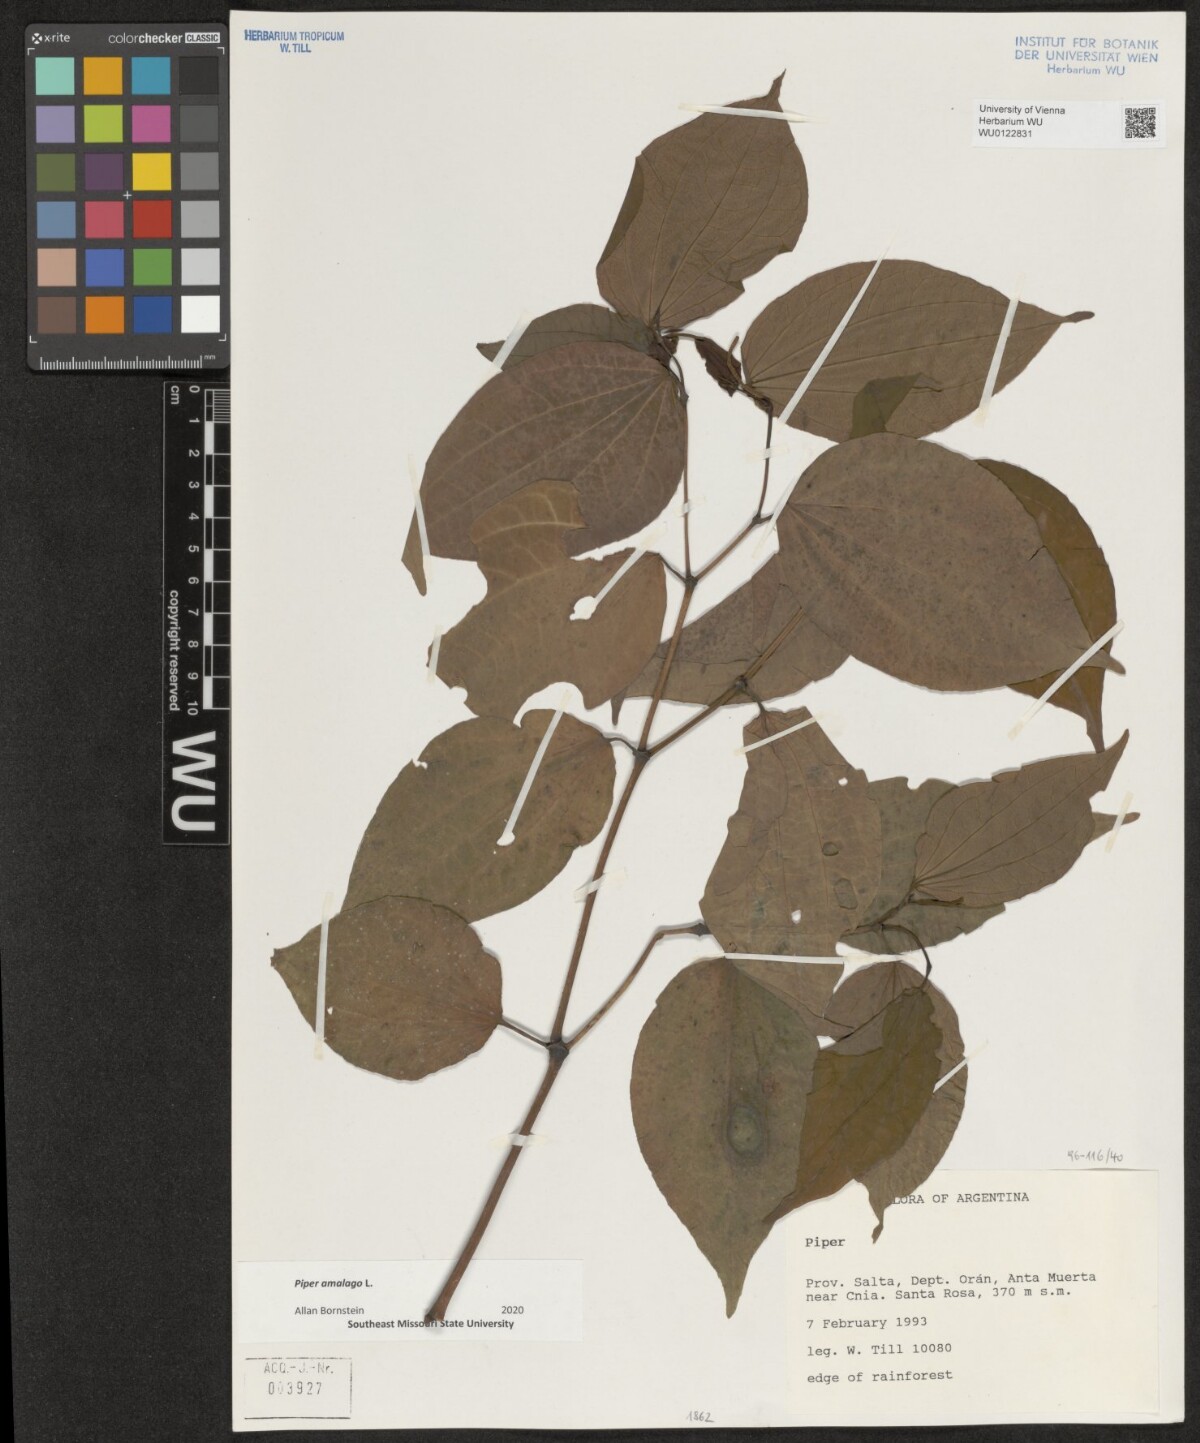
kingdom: Plantae
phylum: Tracheophyta
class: Magnoliopsida
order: Piperales
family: Piperaceae
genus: Piper
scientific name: Piper amalago
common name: Pepper-elder
